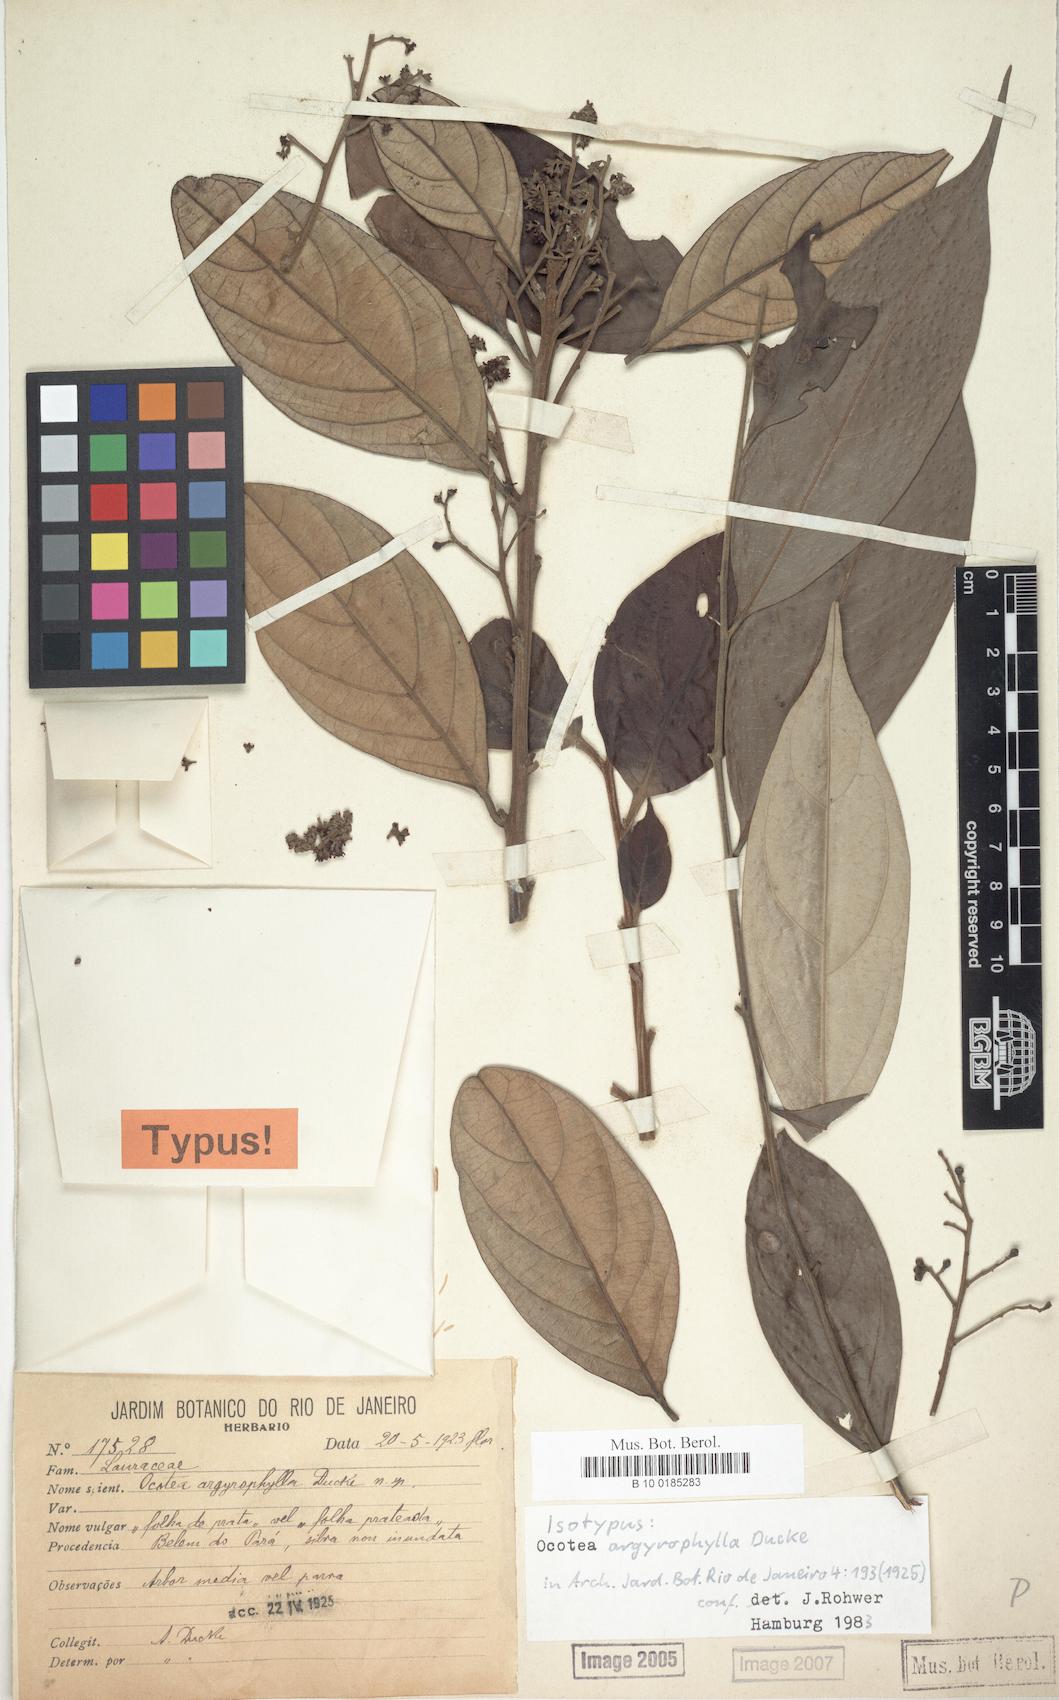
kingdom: Plantae
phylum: Tracheophyta
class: Magnoliopsida
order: Laurales
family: Lauraceae
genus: Ocotea
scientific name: Ocotea argyrophylla
